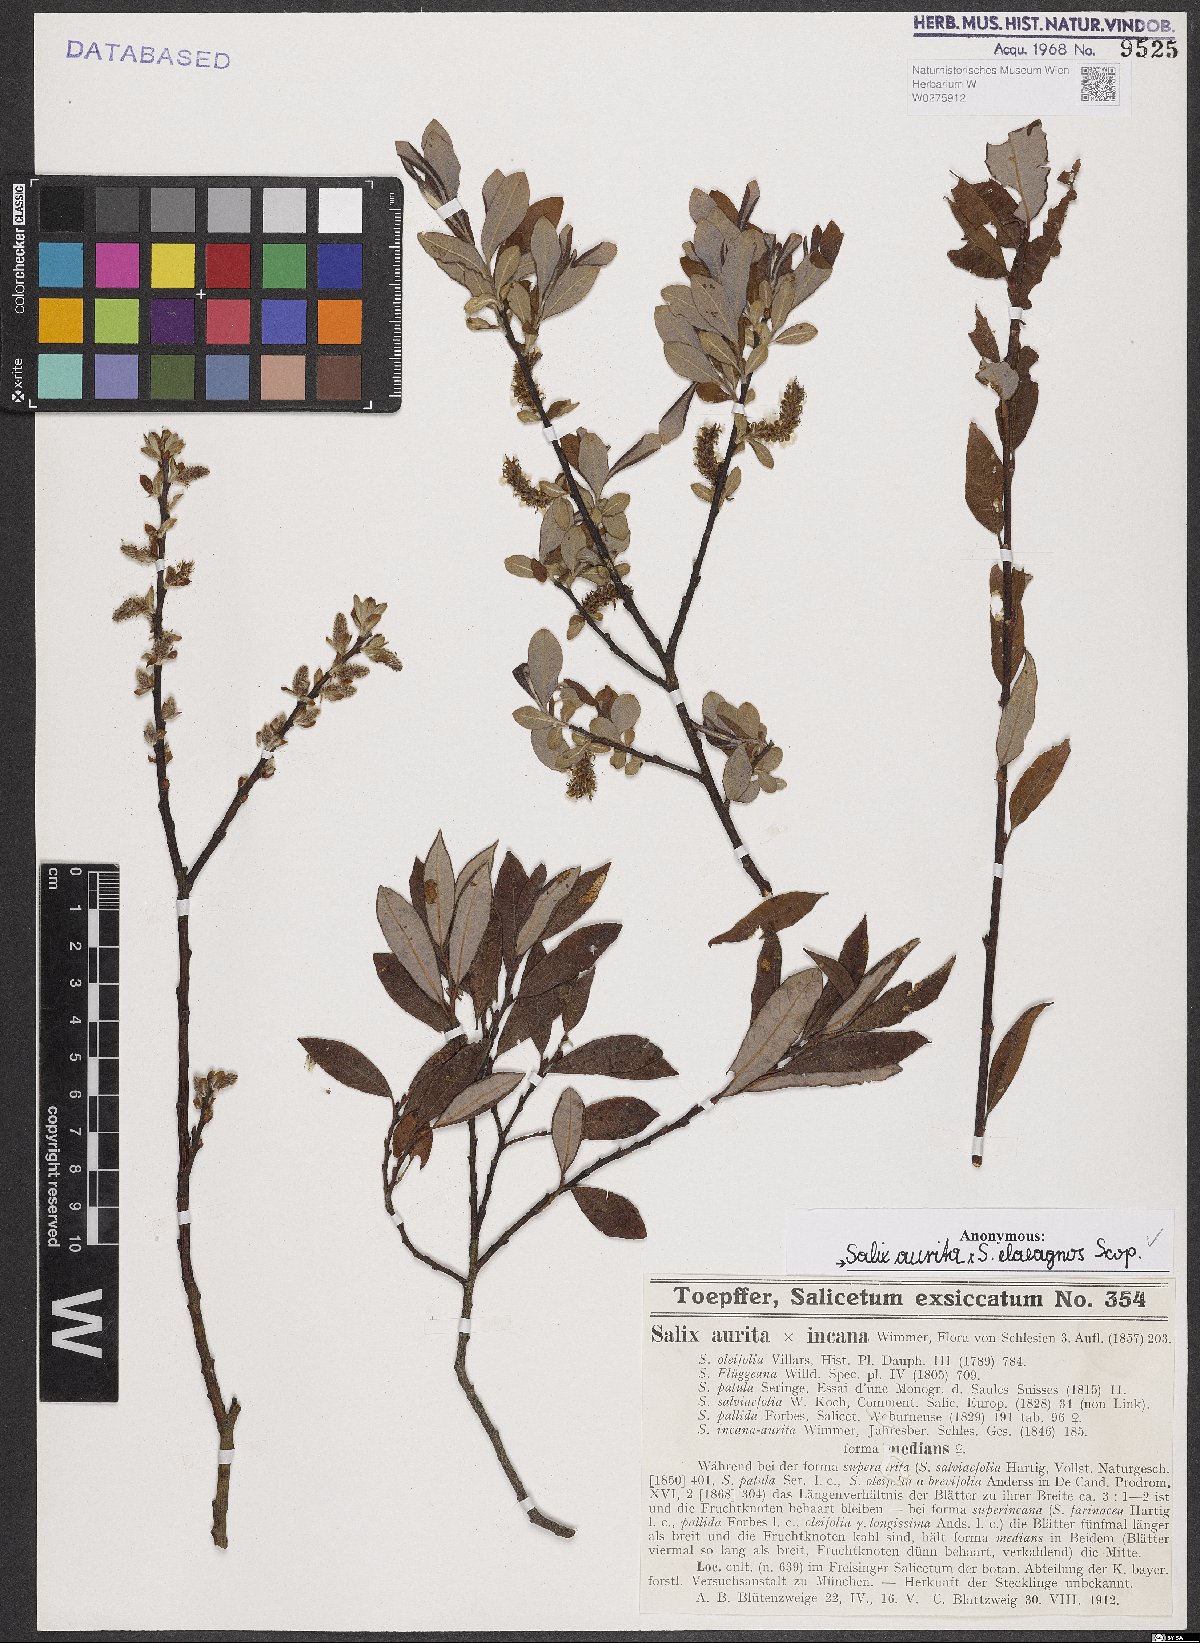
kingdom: Plantae
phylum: Tracheophyta
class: Magnoliopsida
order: Malpighiales
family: Salicaceae
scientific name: Salicaceae
